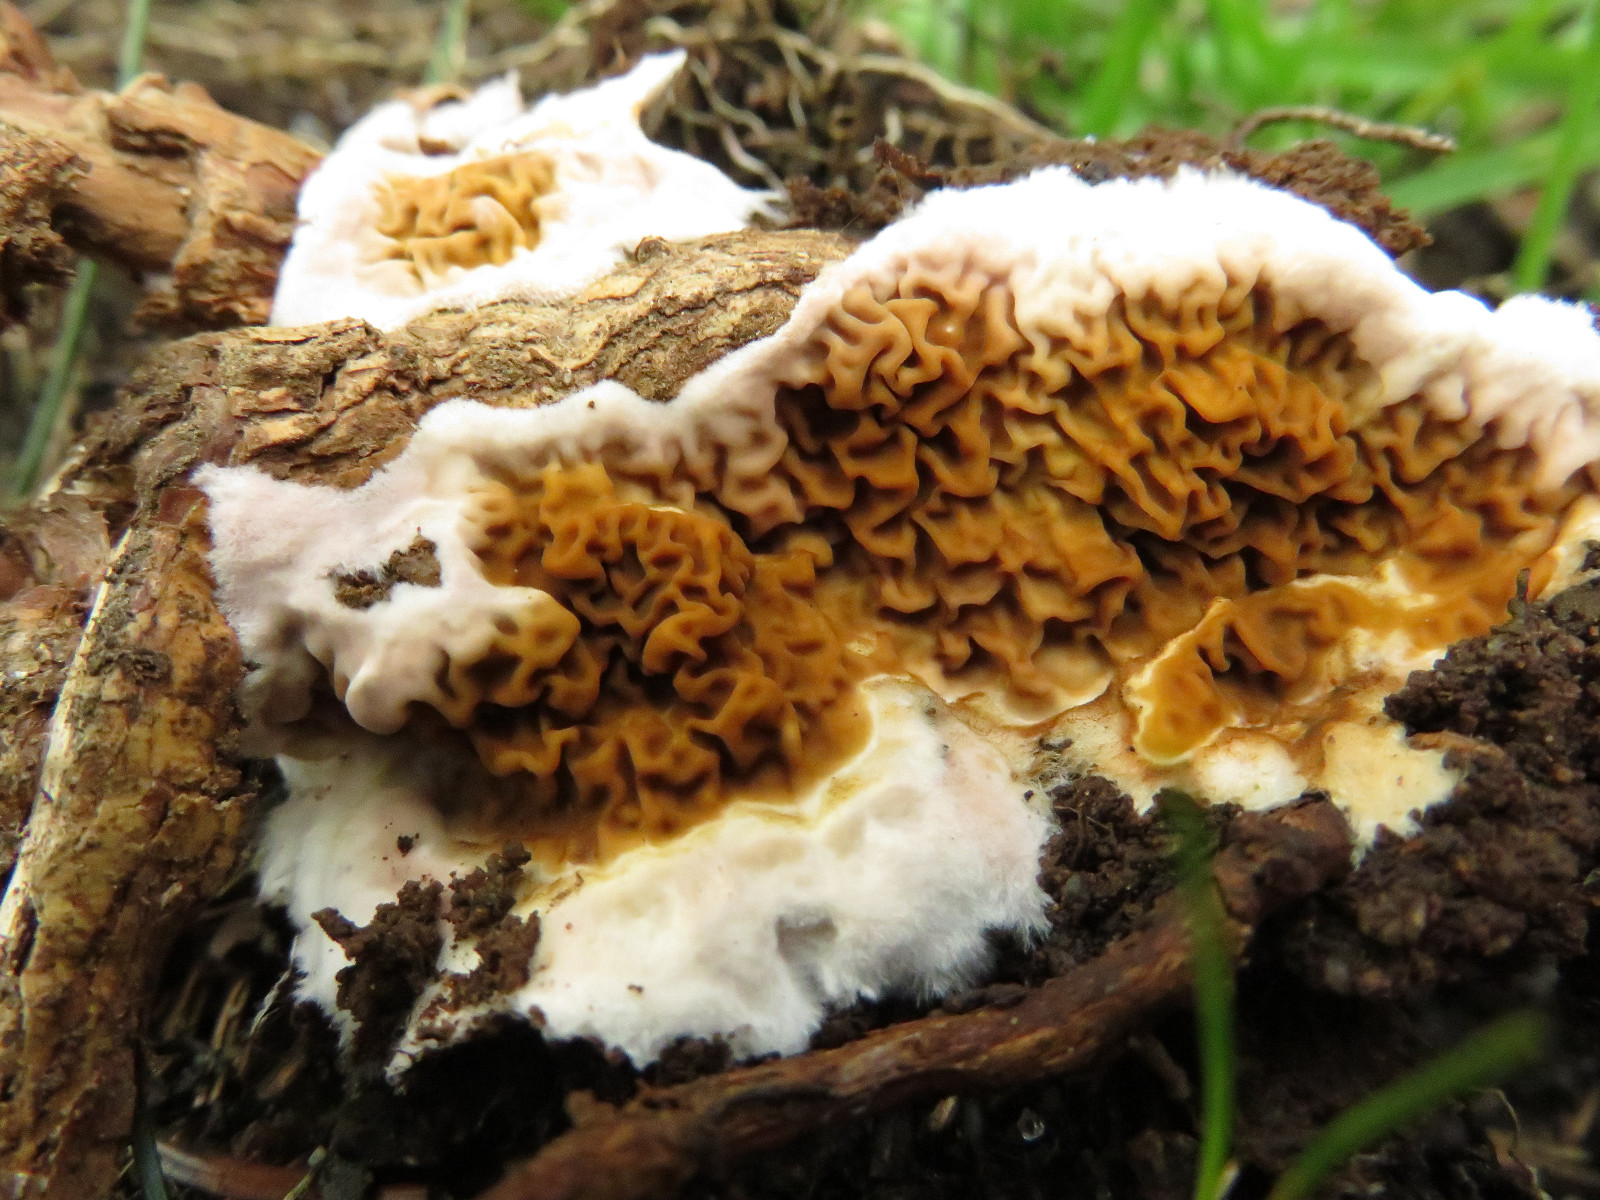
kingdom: Fungi
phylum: Basidiomycota
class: Agaricomycetes
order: Boletales
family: Serpulaceae
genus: Serpula
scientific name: Serpula himantioides
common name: tyndkødet hussvamp
